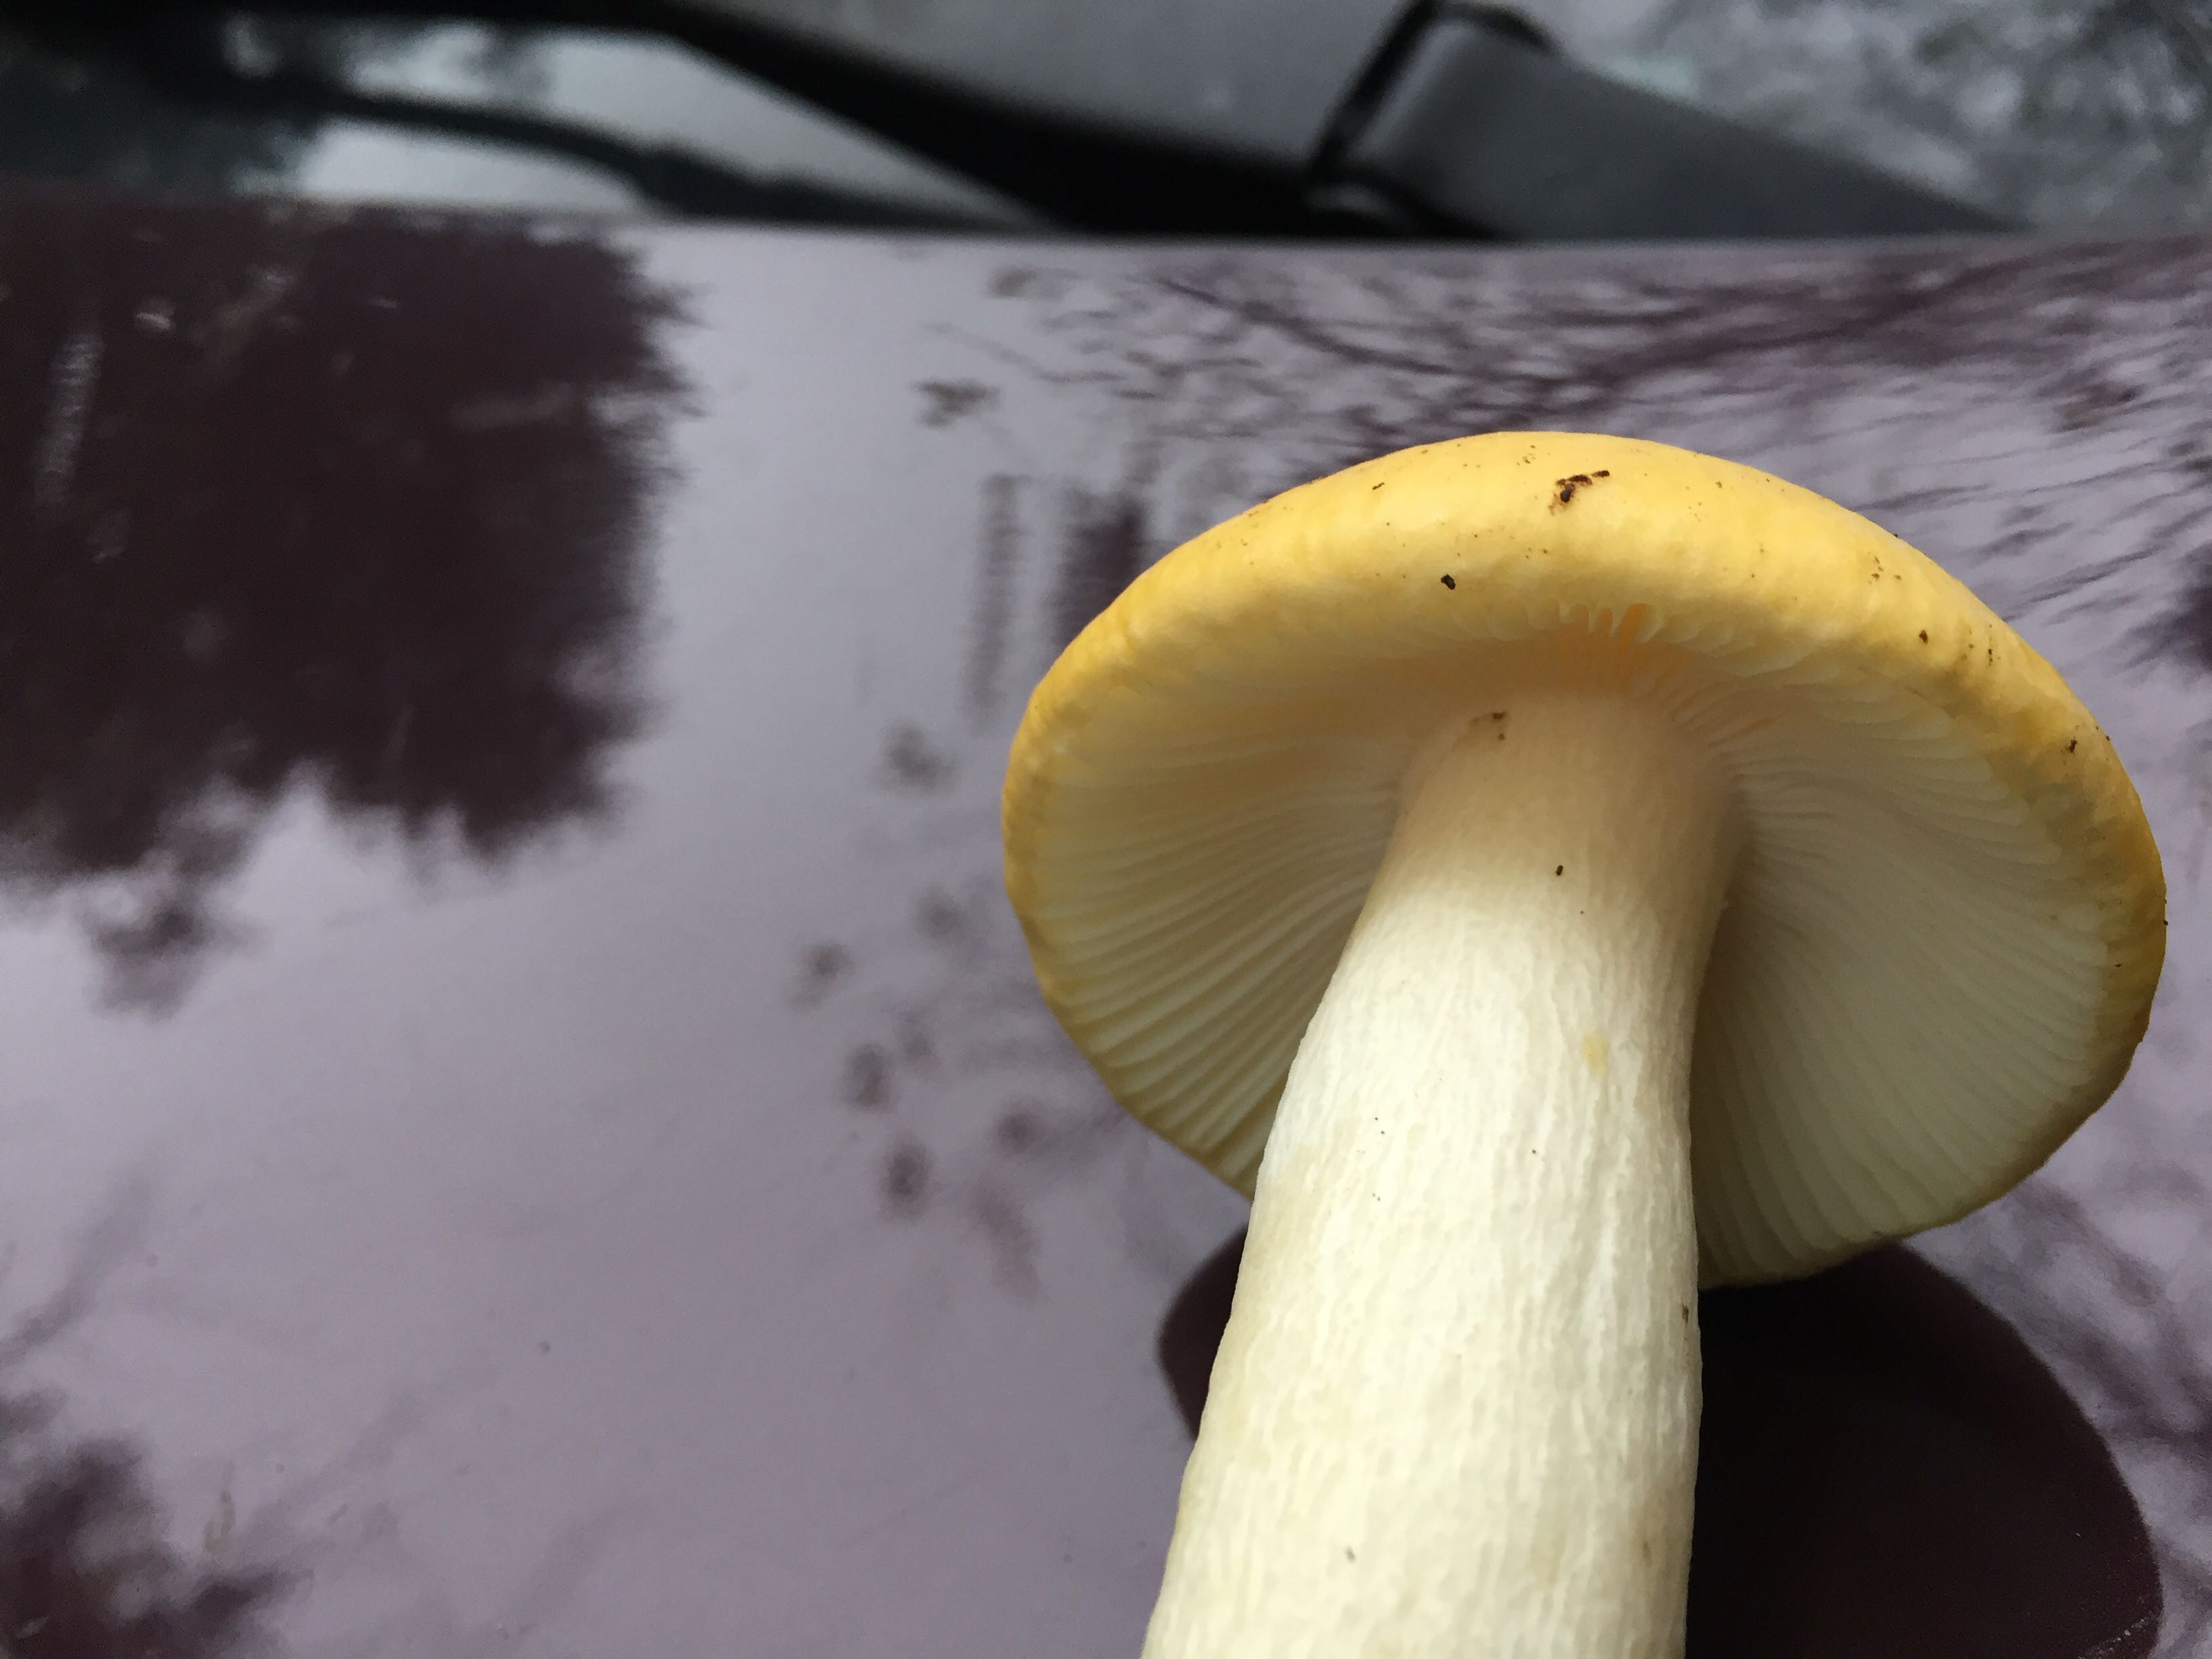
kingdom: Fungi
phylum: Basidiomycota
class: Agaricomycetes
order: Russulales
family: Russulaceae
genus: Russula
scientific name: Russula
